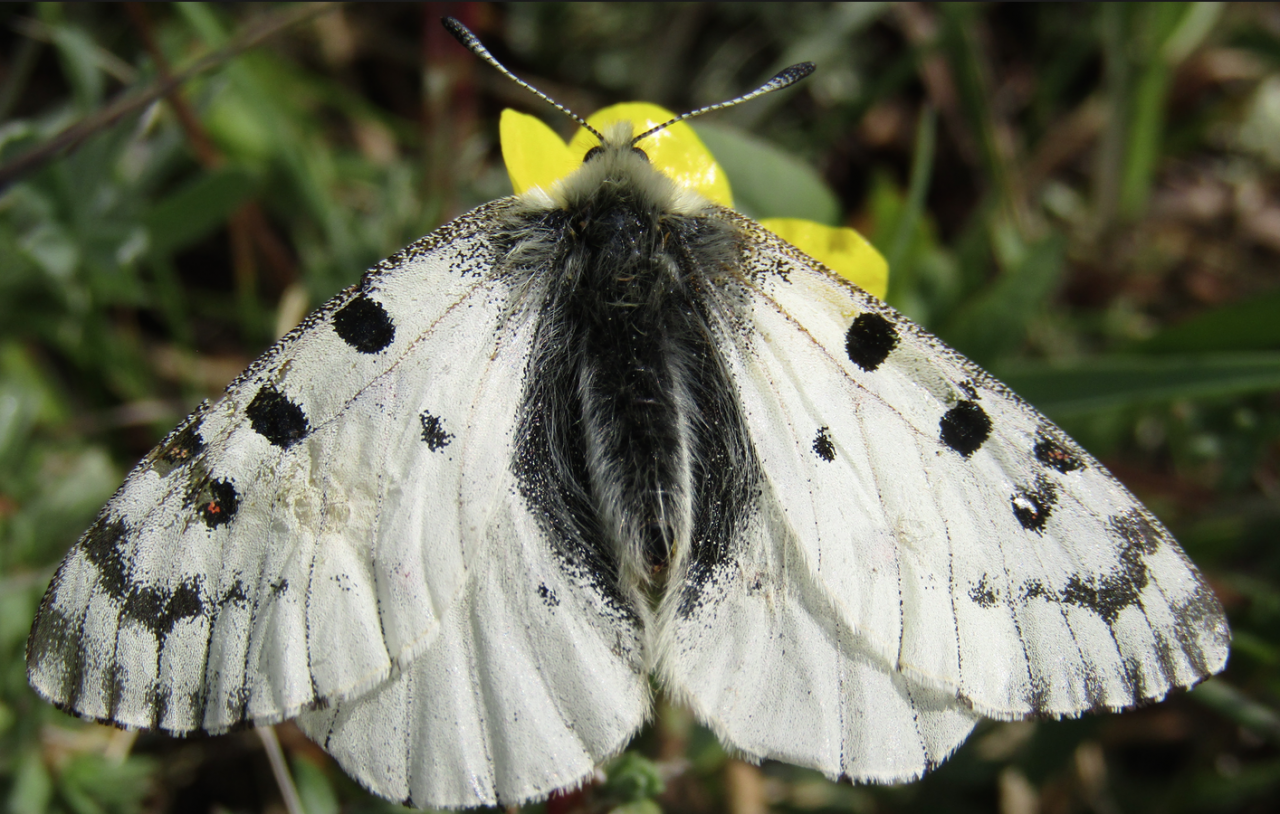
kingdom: Animalia
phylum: Arthropoda
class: Insecta
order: Lepidoptera
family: Papilionidae
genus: Parnassius
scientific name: Parnassius smintheus
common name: Rocky Mountain Parnassian
